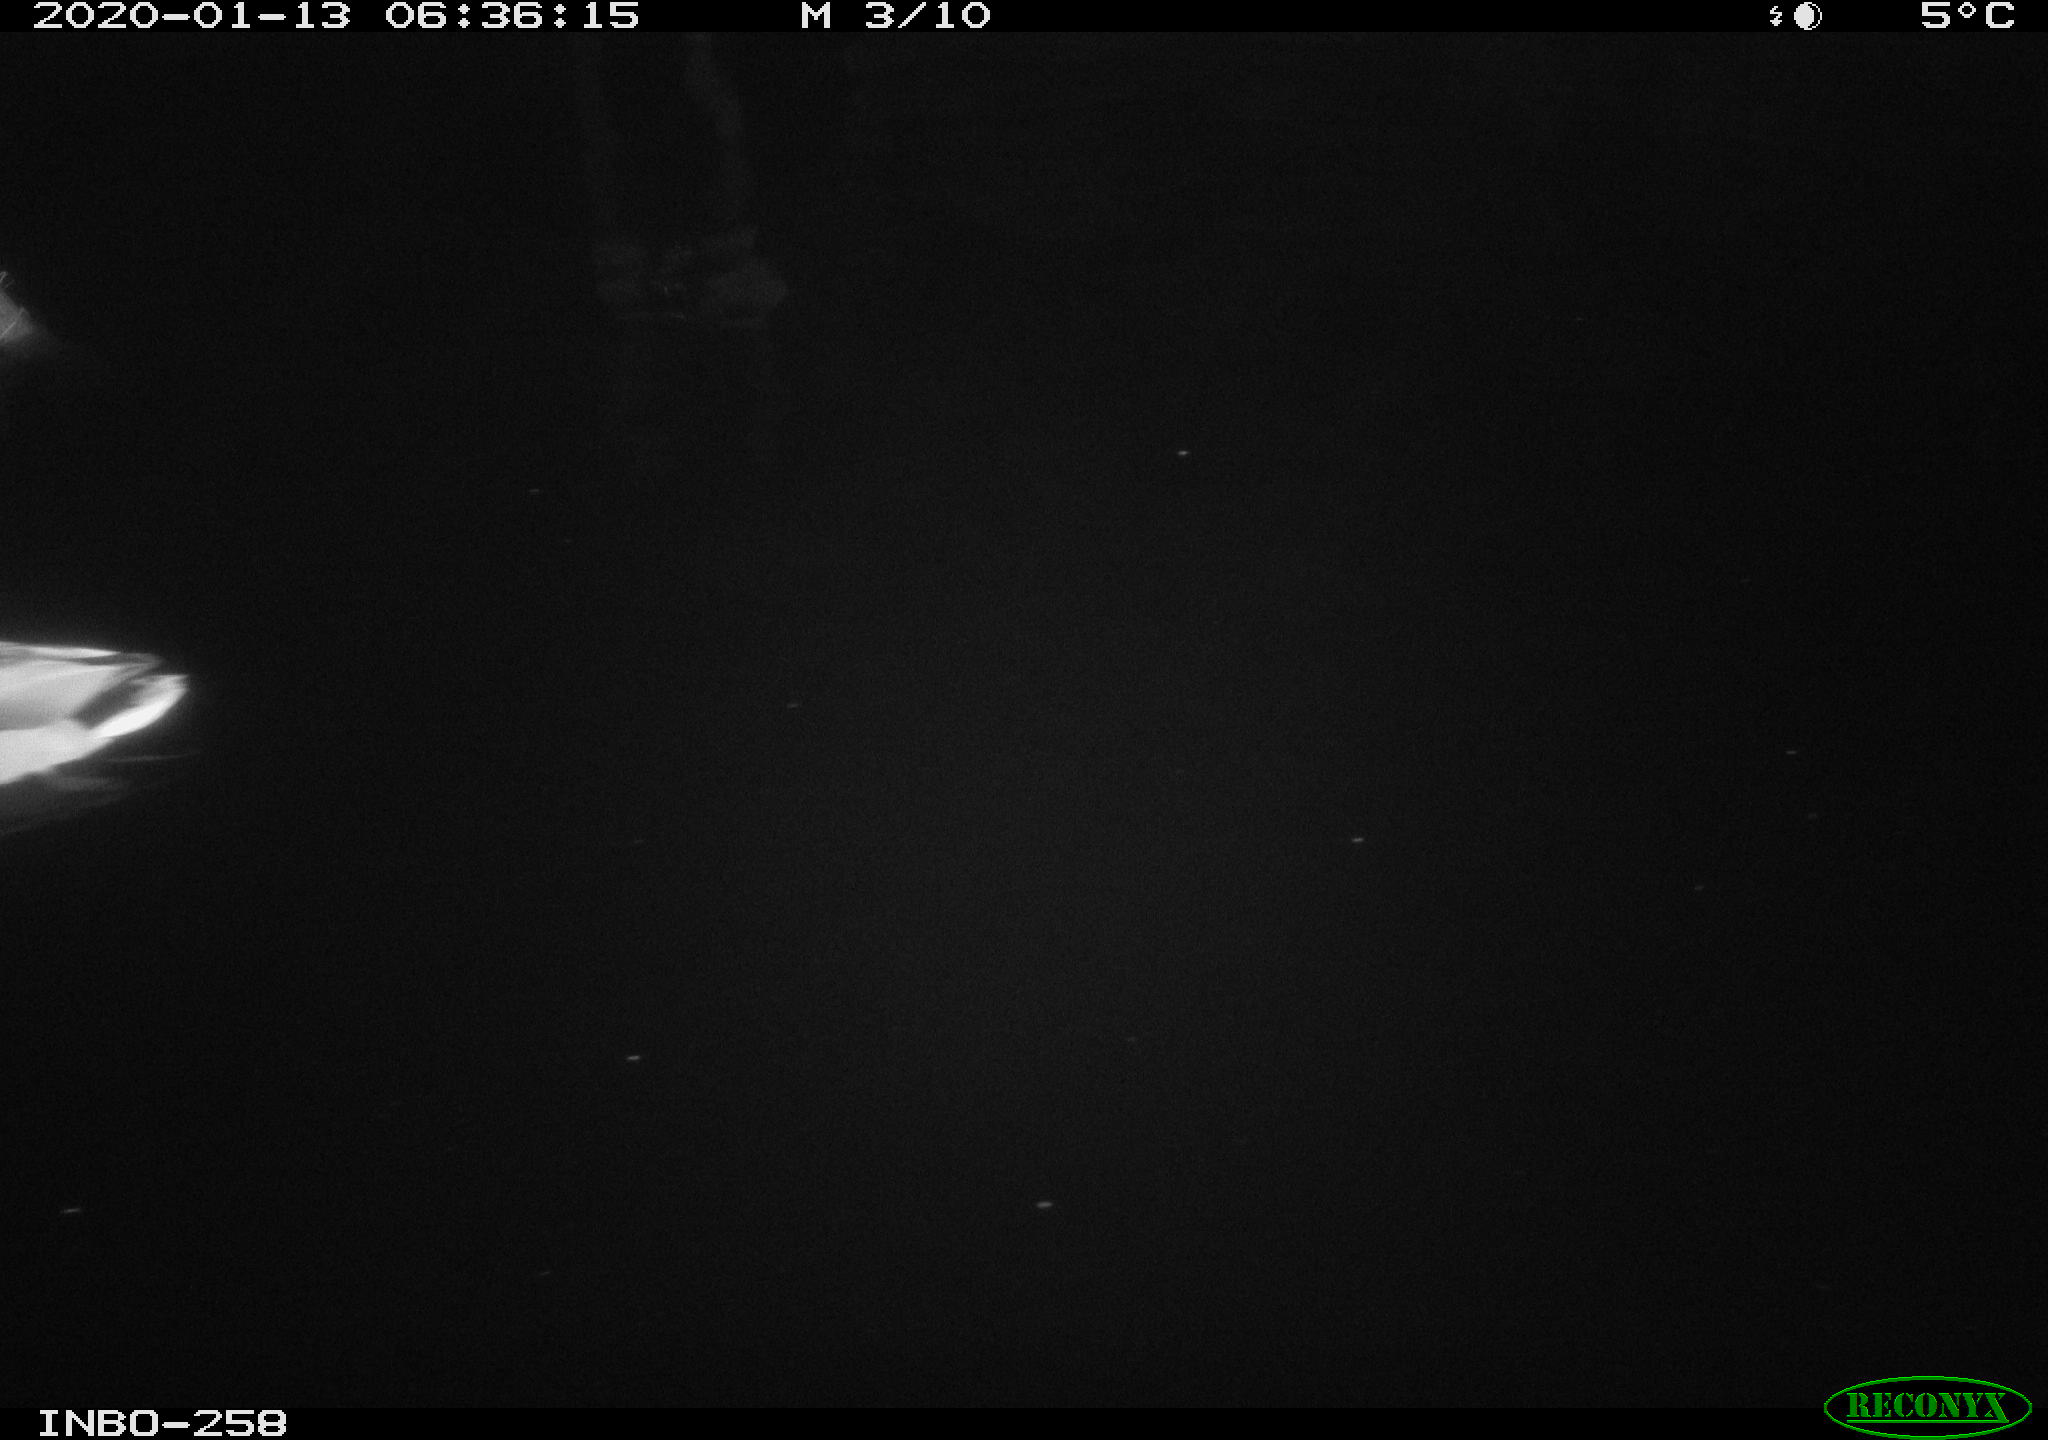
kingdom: Animalia
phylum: Chordata
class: Aves
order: Anseriformes
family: Anatidae
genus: Anas
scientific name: Anas platyrhynchos
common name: Mallard
